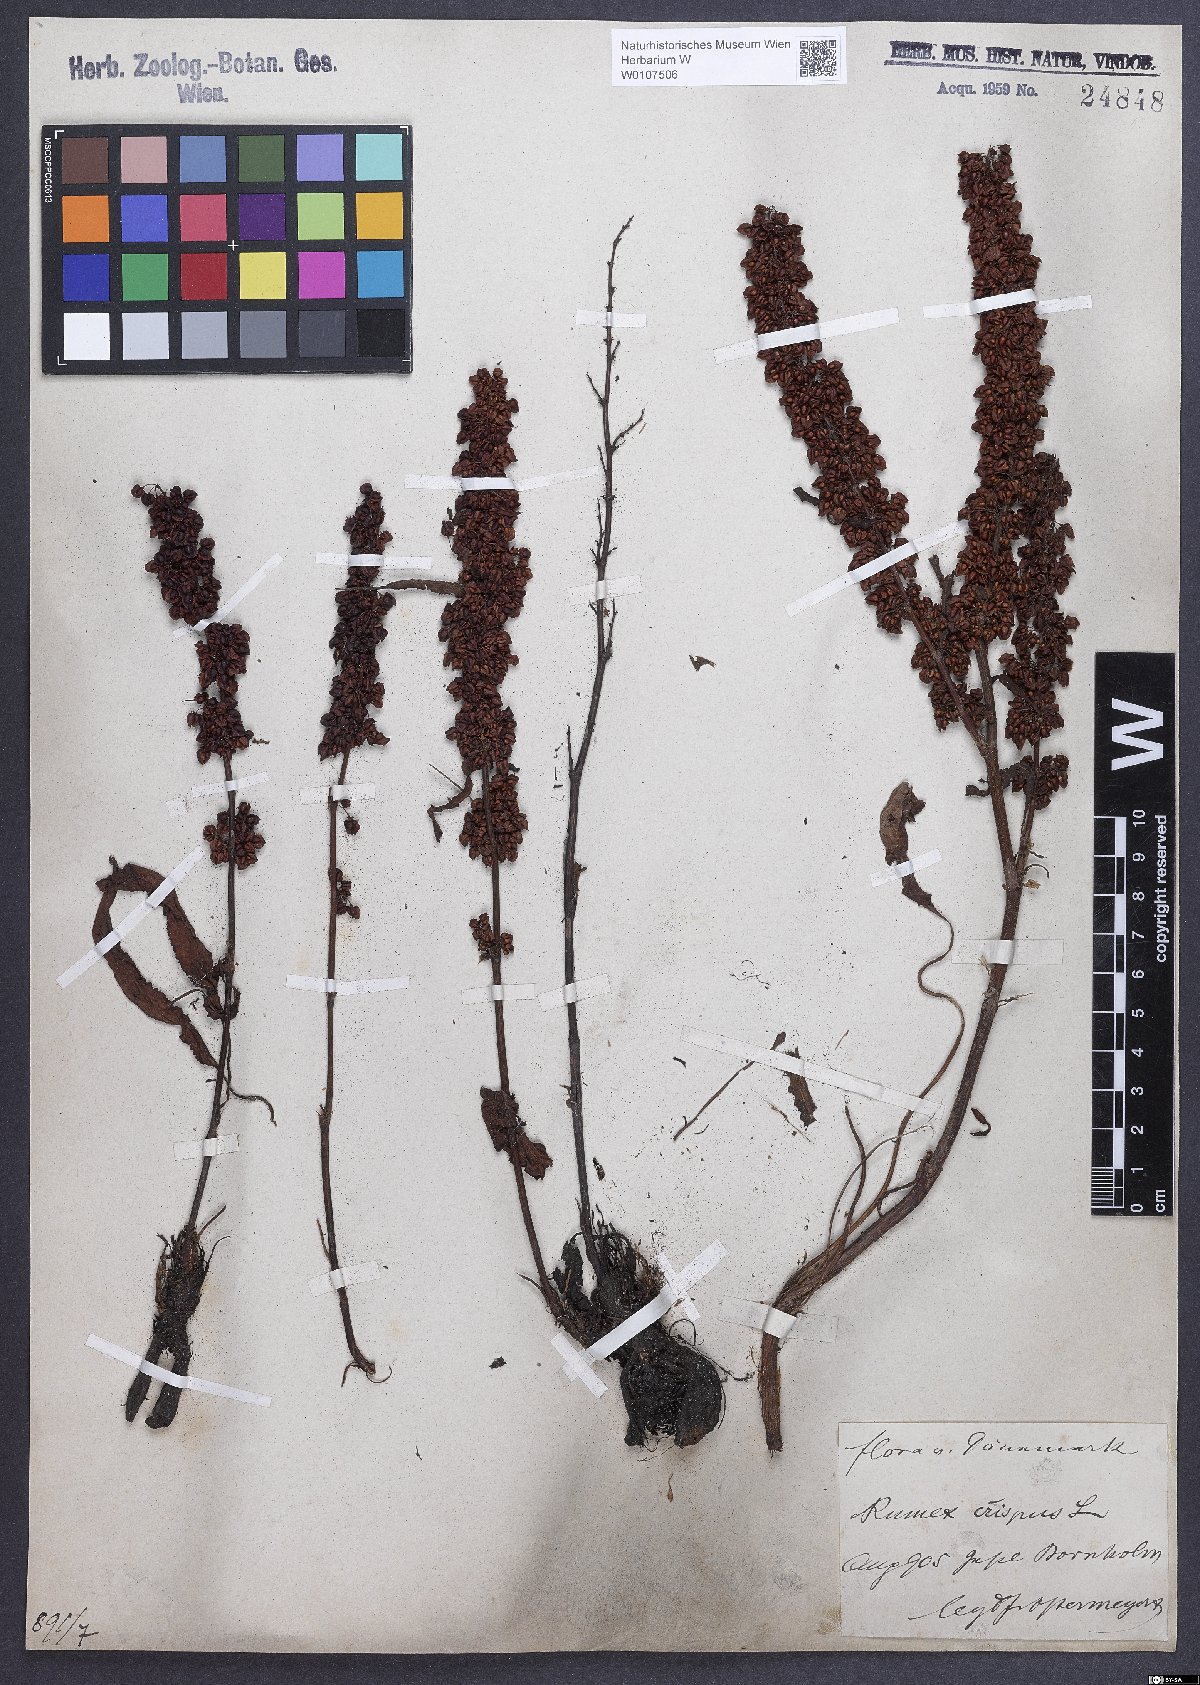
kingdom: Plantae
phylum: Tracheophyta
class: Magnoliopsida
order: Caryophyllales
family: Polygonaceae
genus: Rumex
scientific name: Rumex crispus
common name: Curled dock
